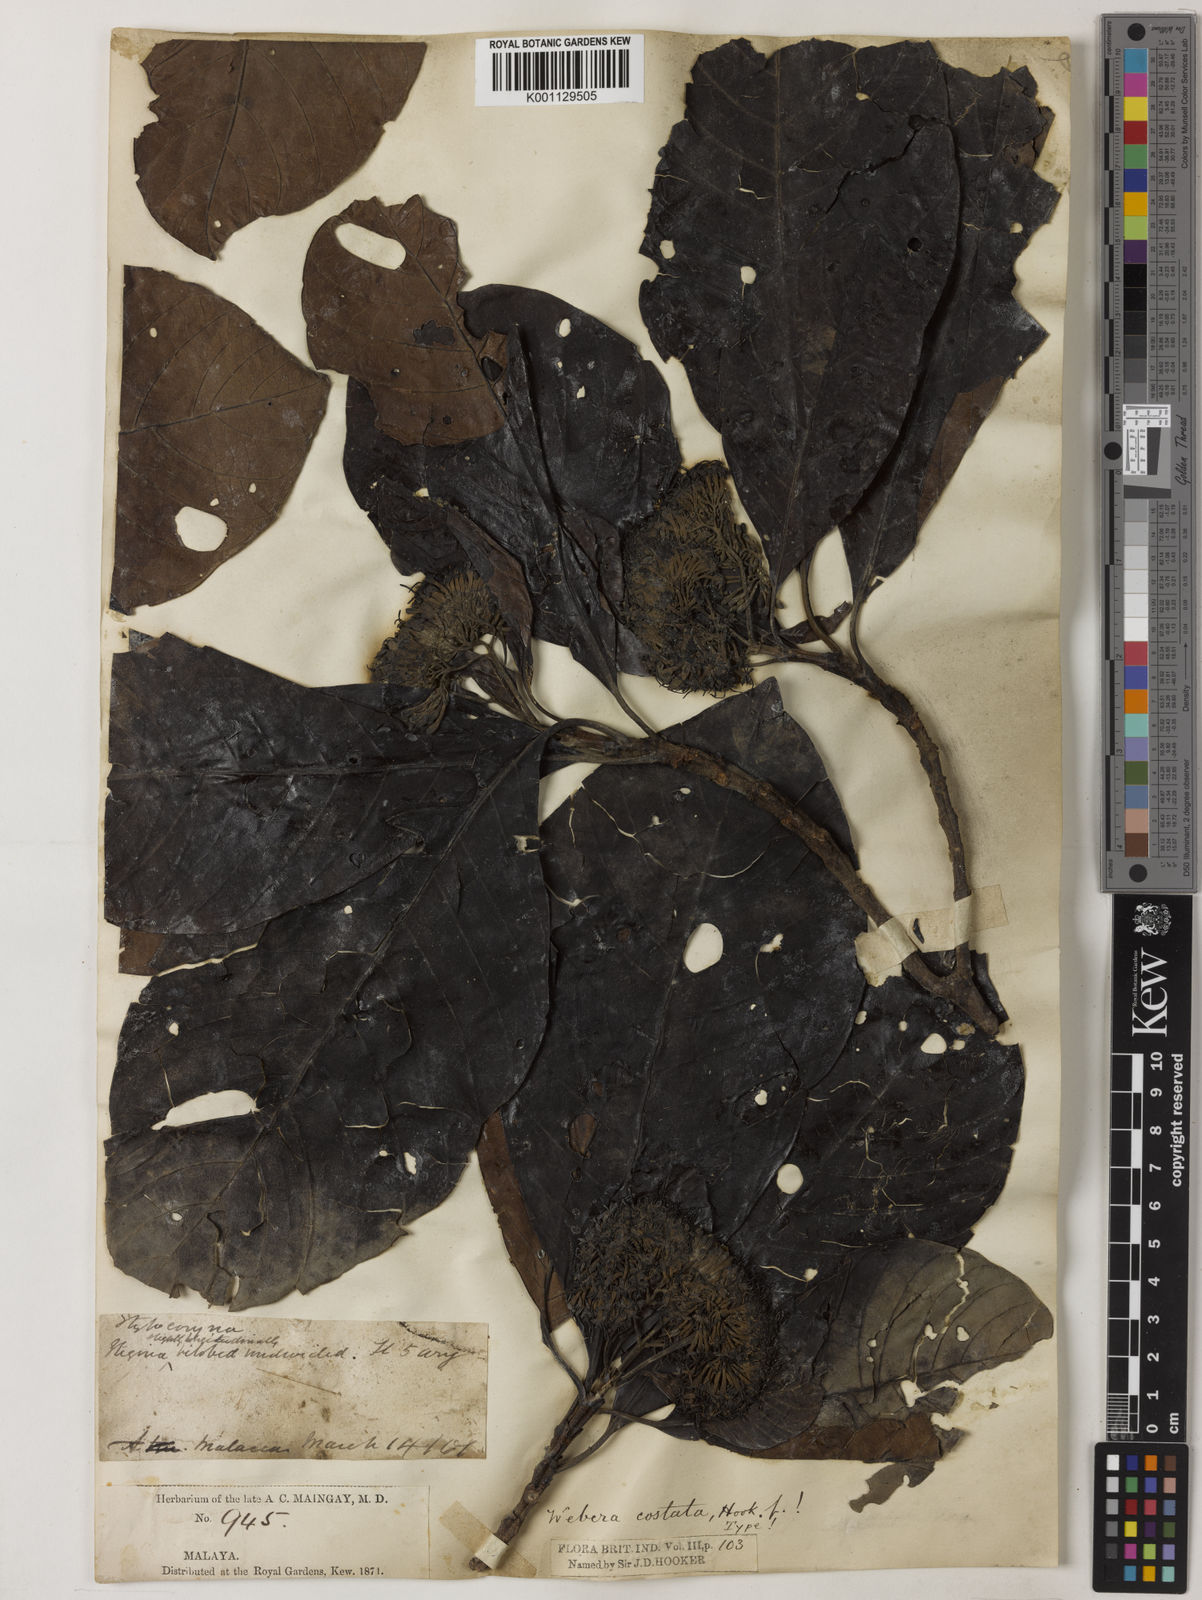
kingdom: Plantae
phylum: Tracheophyta
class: Magnoliopsida
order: Gentianales
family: Rubiaceae
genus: Tarenna
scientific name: Tarenna costata
